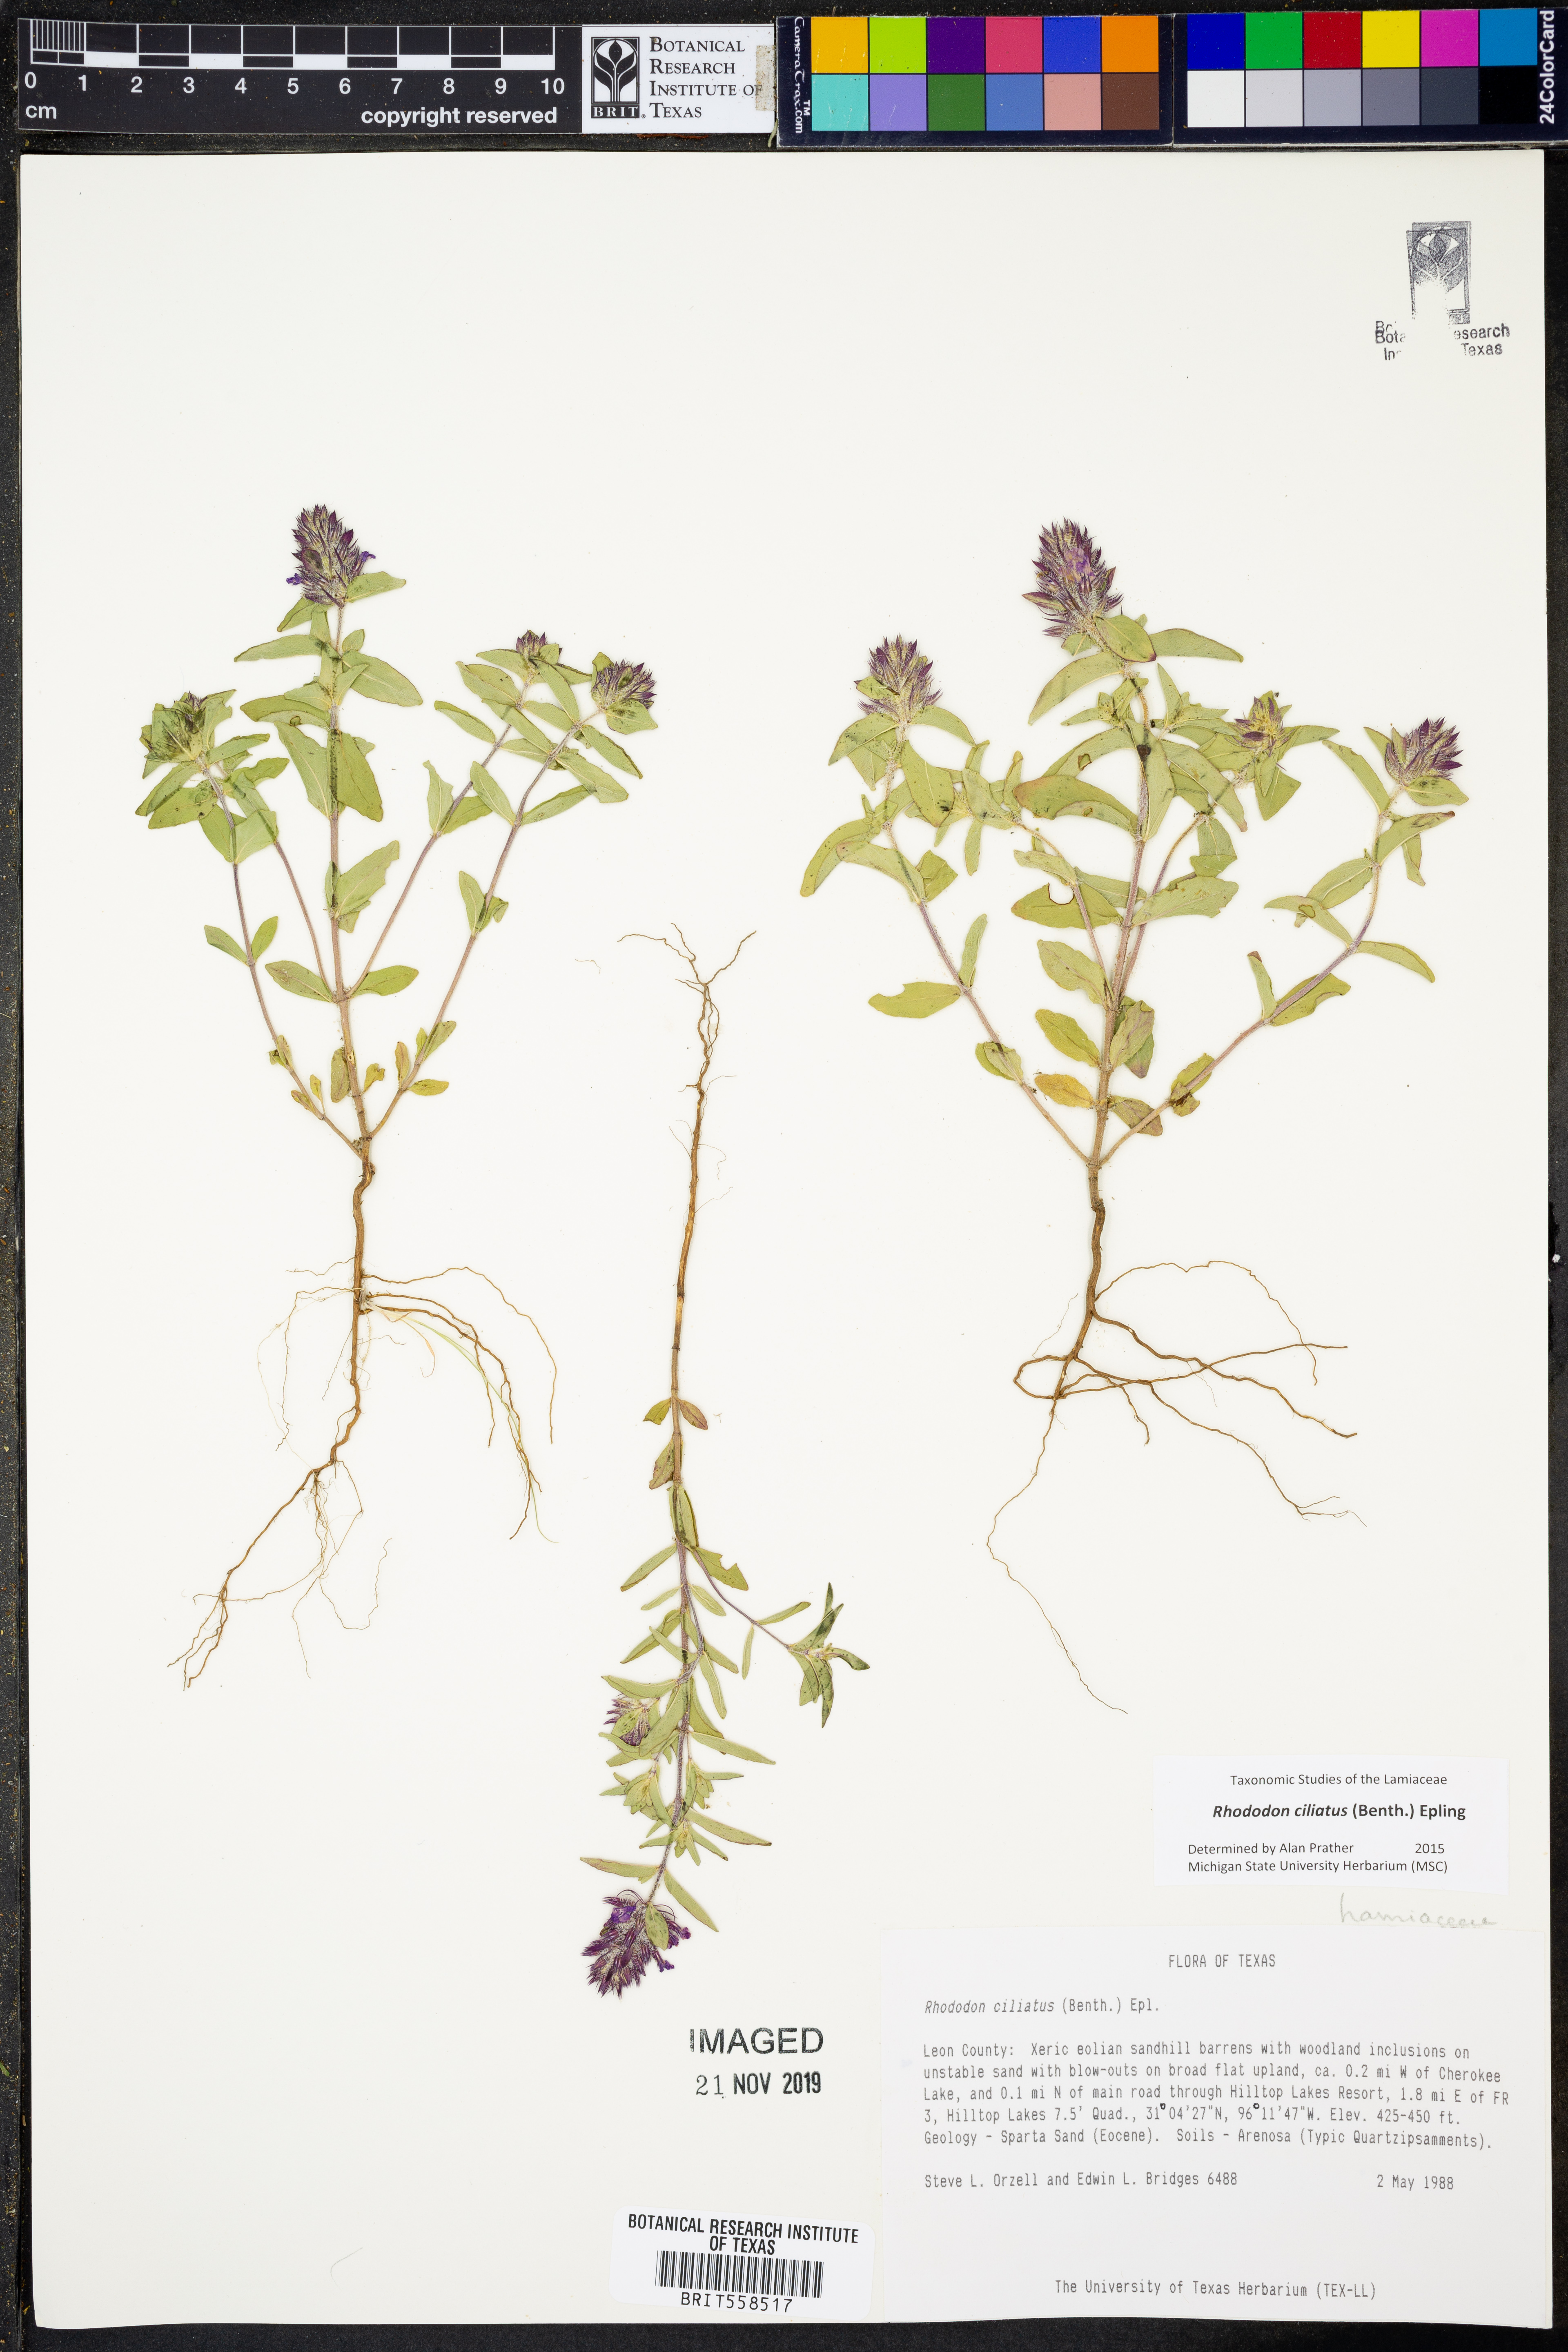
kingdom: Plantae
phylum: Tracheophyta
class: Magnoliopsida
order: Lamiales
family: Lamiaceae
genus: Rhododon
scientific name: Rhododon ciliatus
